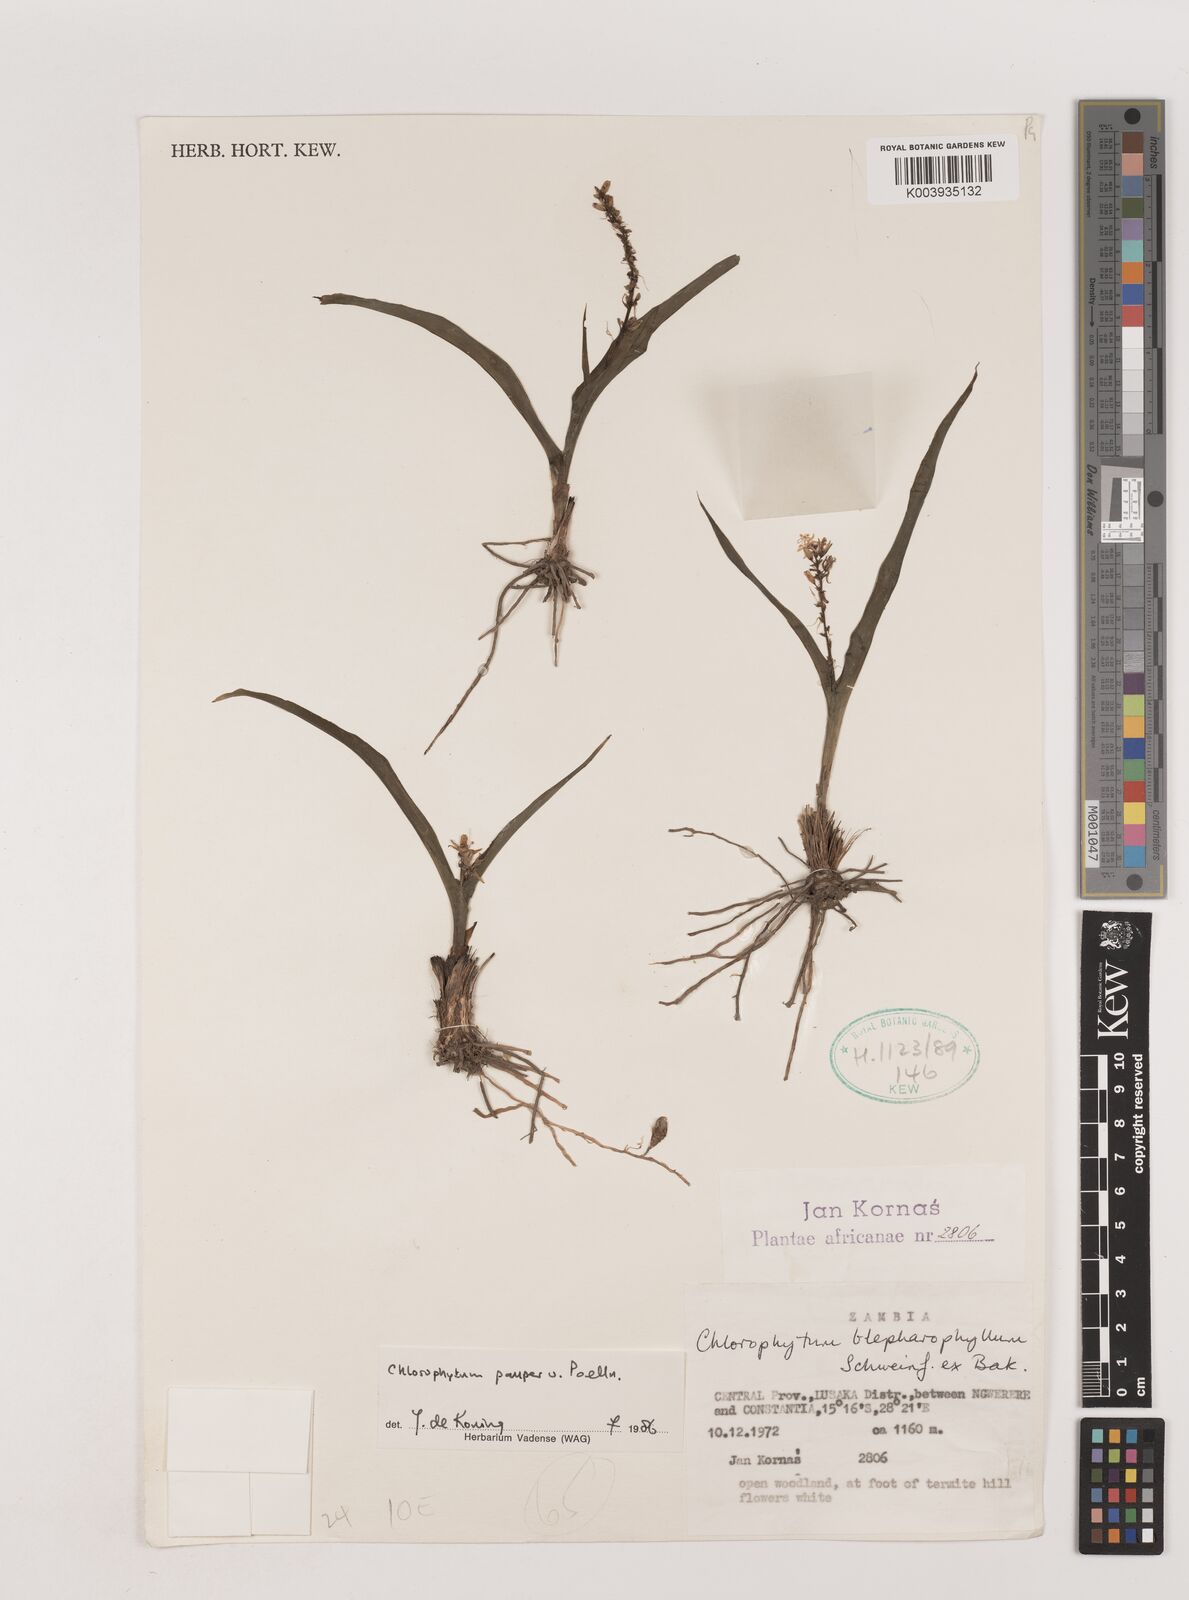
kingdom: Plantae
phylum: Tracheophyta
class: Liliopsida
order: Asparagales
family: Asparagaceae
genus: Chlorophytum
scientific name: Chlorophytum pauper
